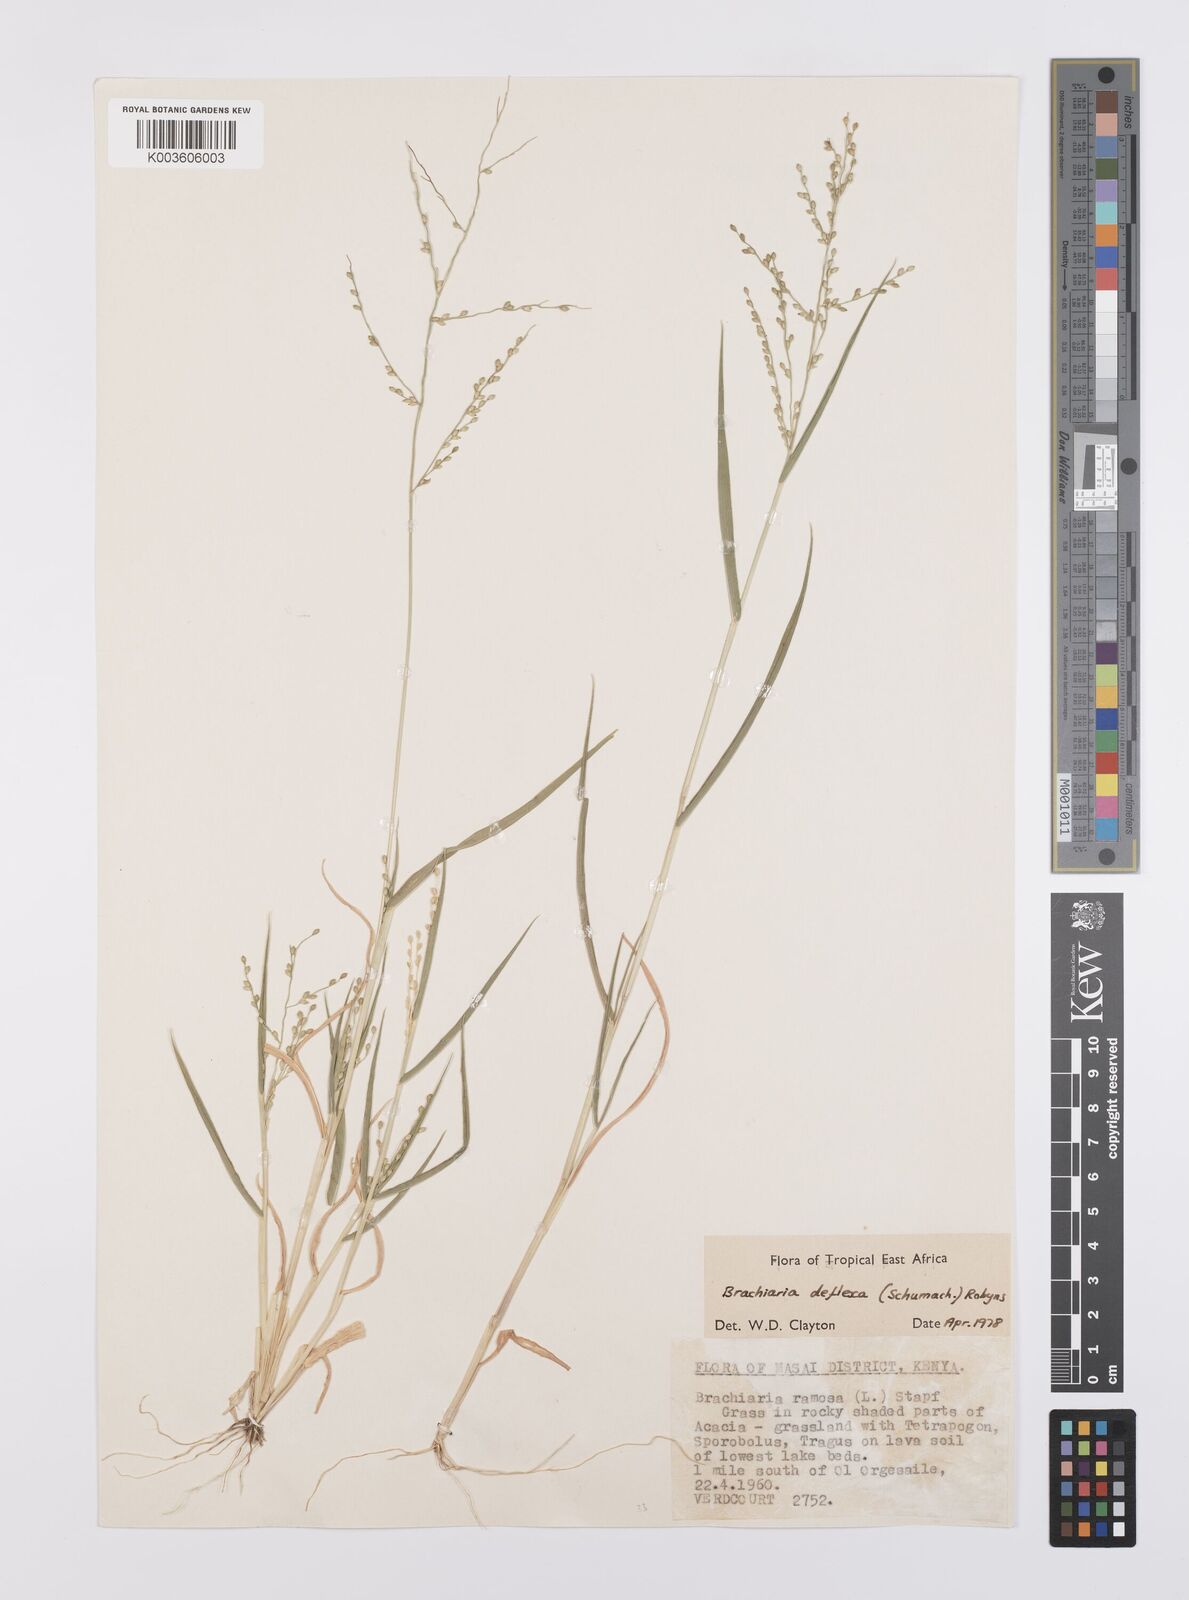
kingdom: Plantae
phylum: Tracheophyta
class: Liliopsida
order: Poales
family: Poaceae
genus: Urochloa
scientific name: Urochloa deflexa
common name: Guinea millet
